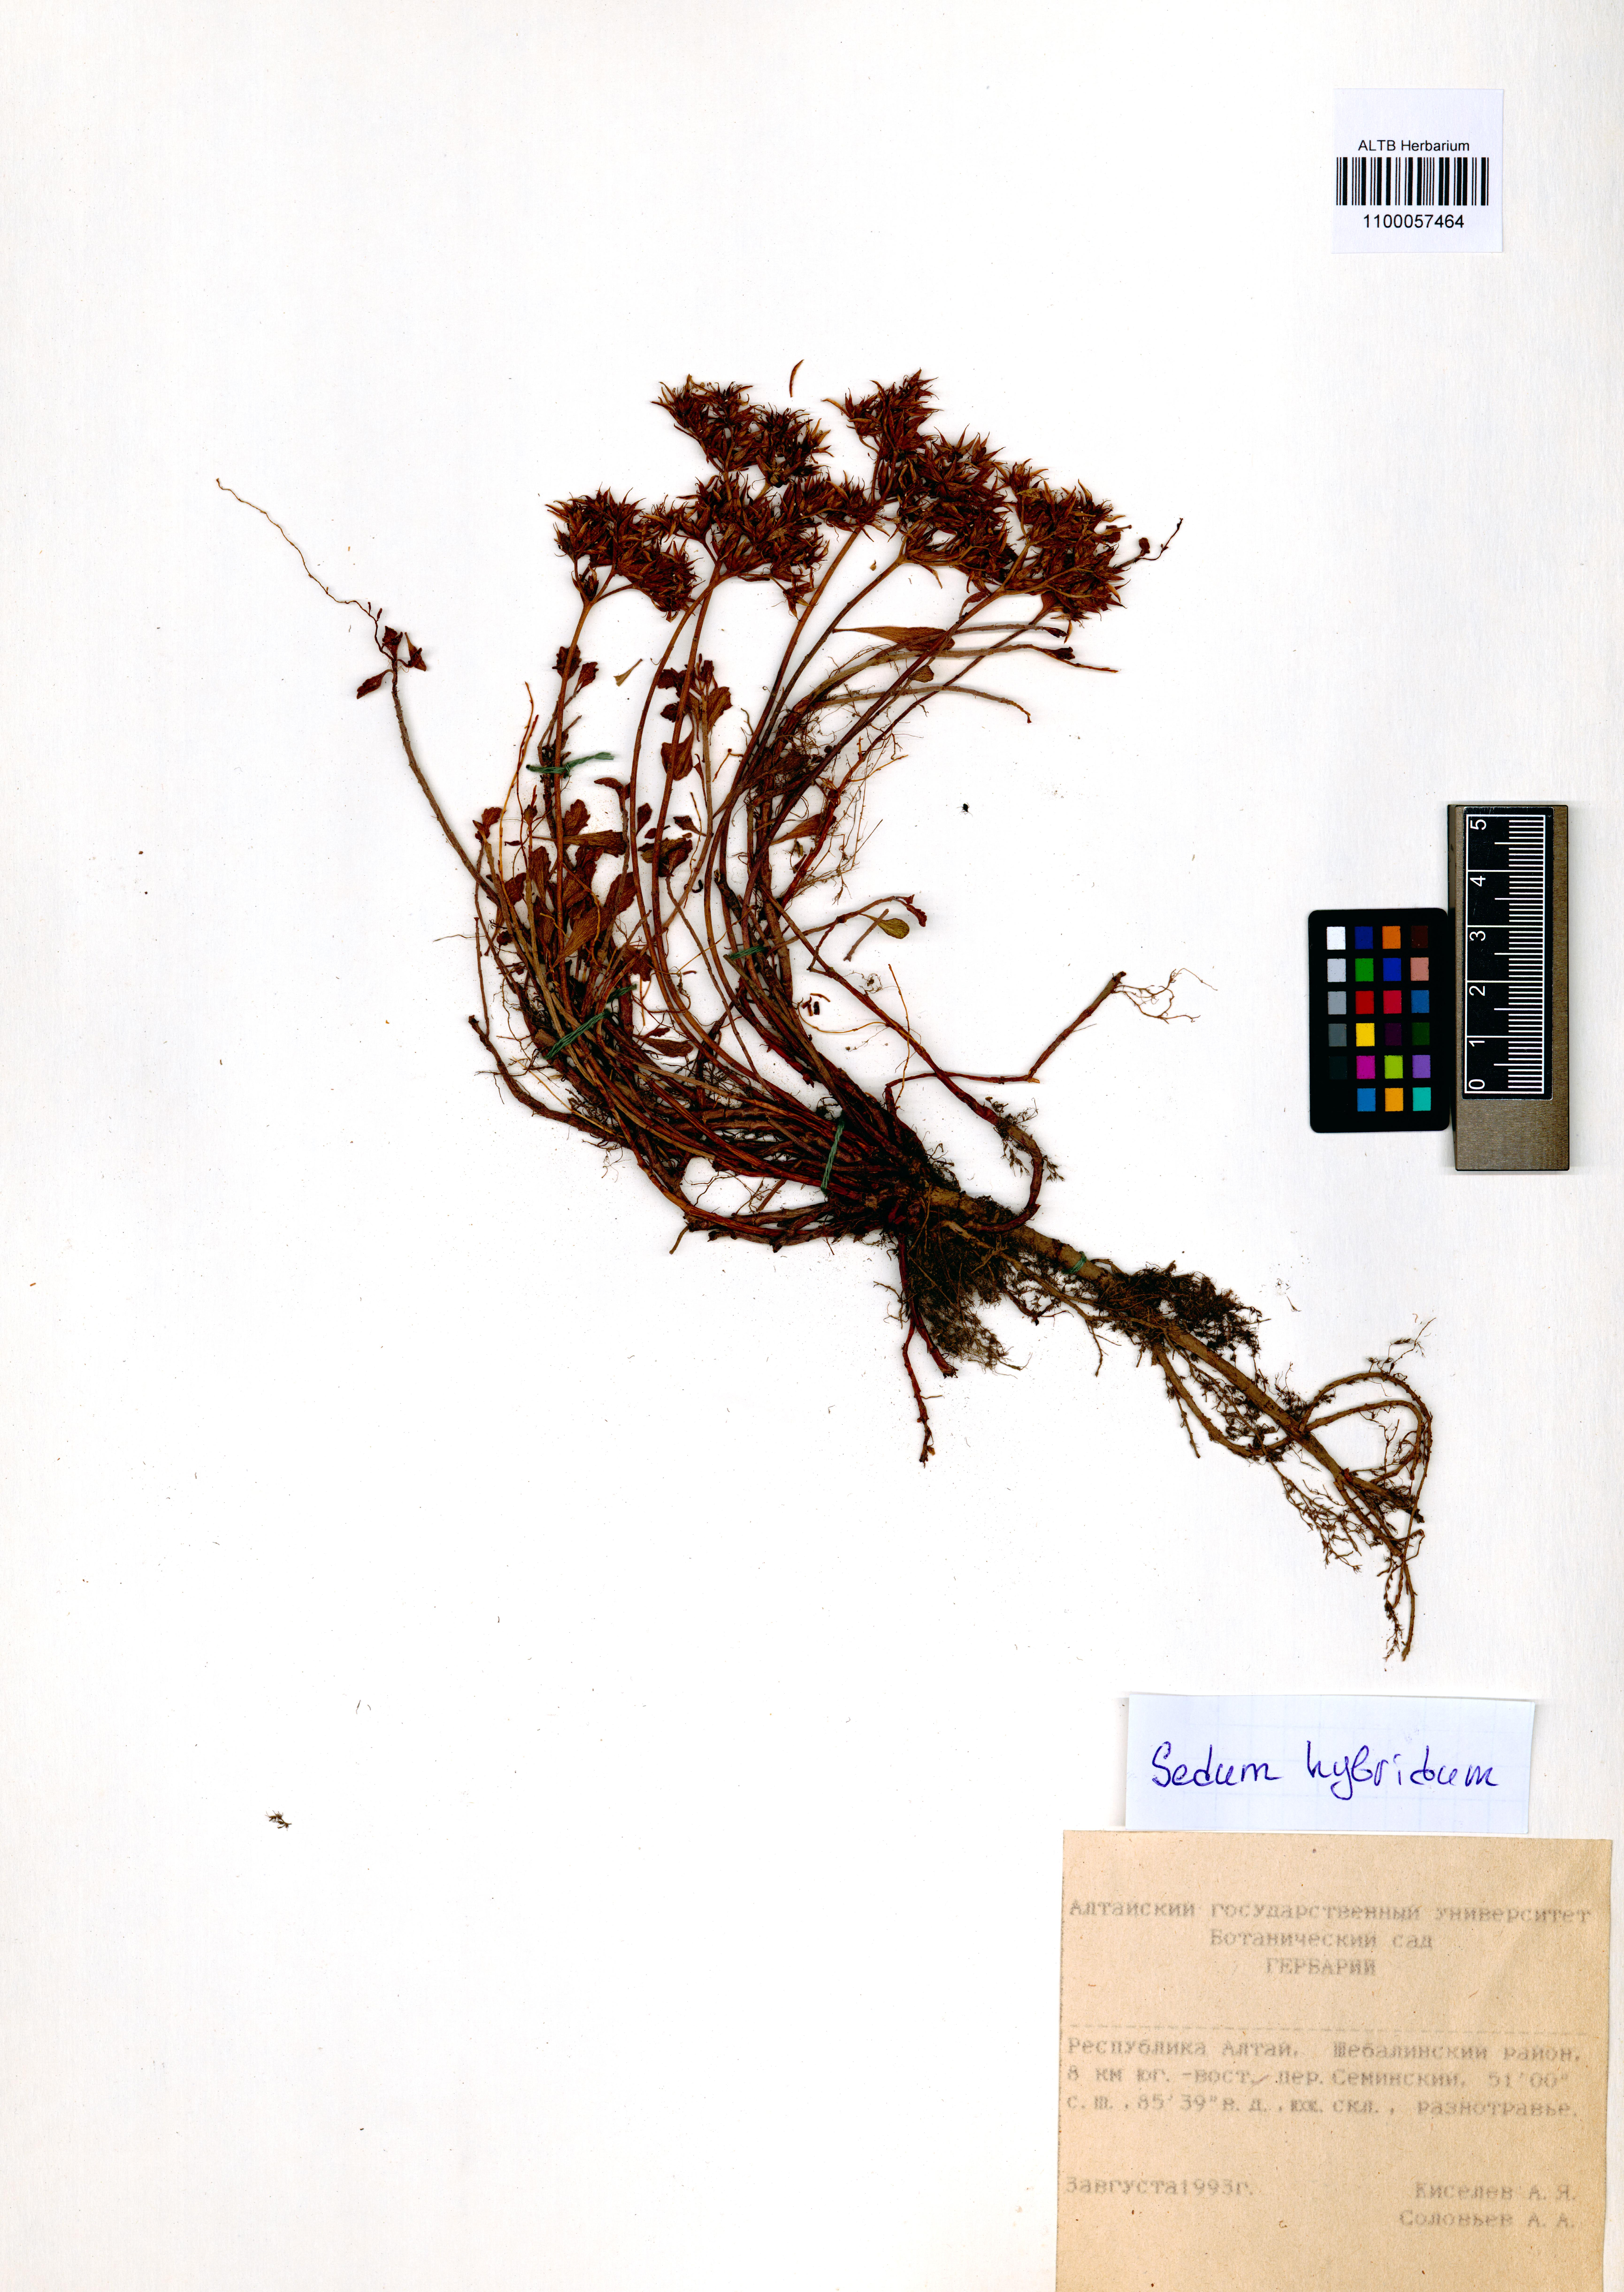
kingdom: Plantae
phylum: Tracheophyta
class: Magnoliopsida
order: Saxifragales
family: Crassulaceae
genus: Phedimus
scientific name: Phedimus hybridus
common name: Hybrid stonecrop
